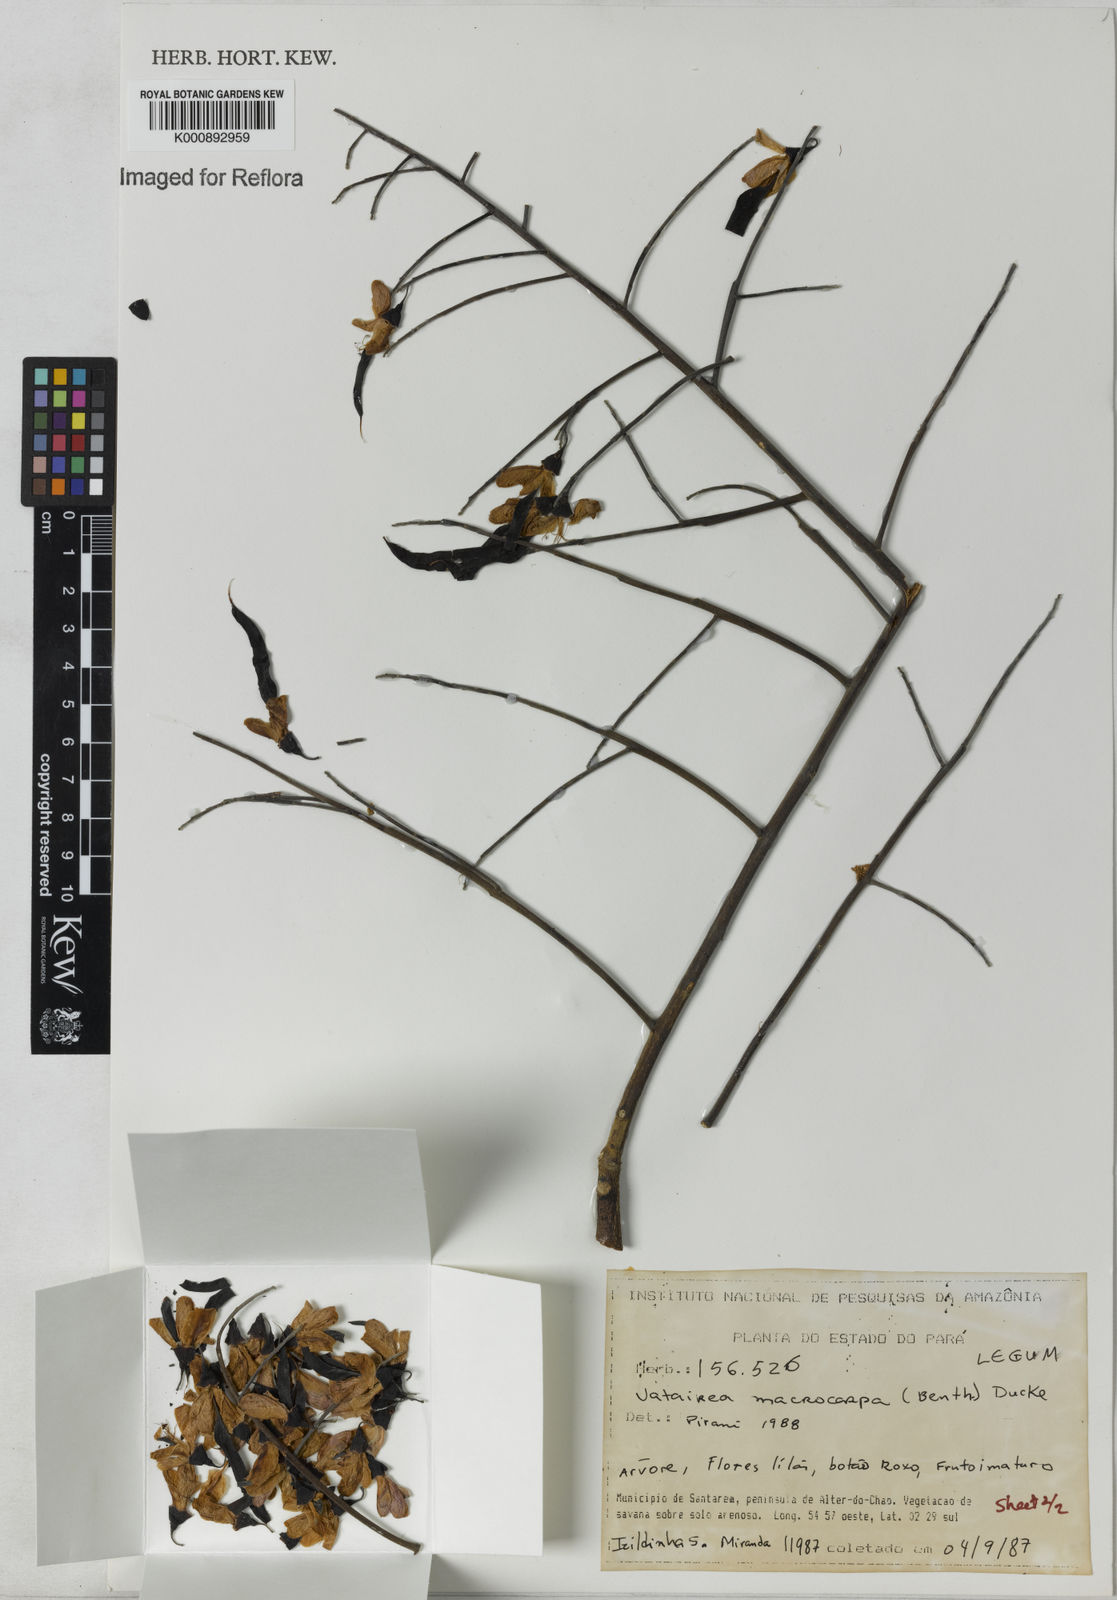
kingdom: Plantae
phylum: Tracheophyta
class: Magnoliopsida
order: Fabales
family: Fabaceae
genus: Vatairea
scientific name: Vatairea macrocarpa
